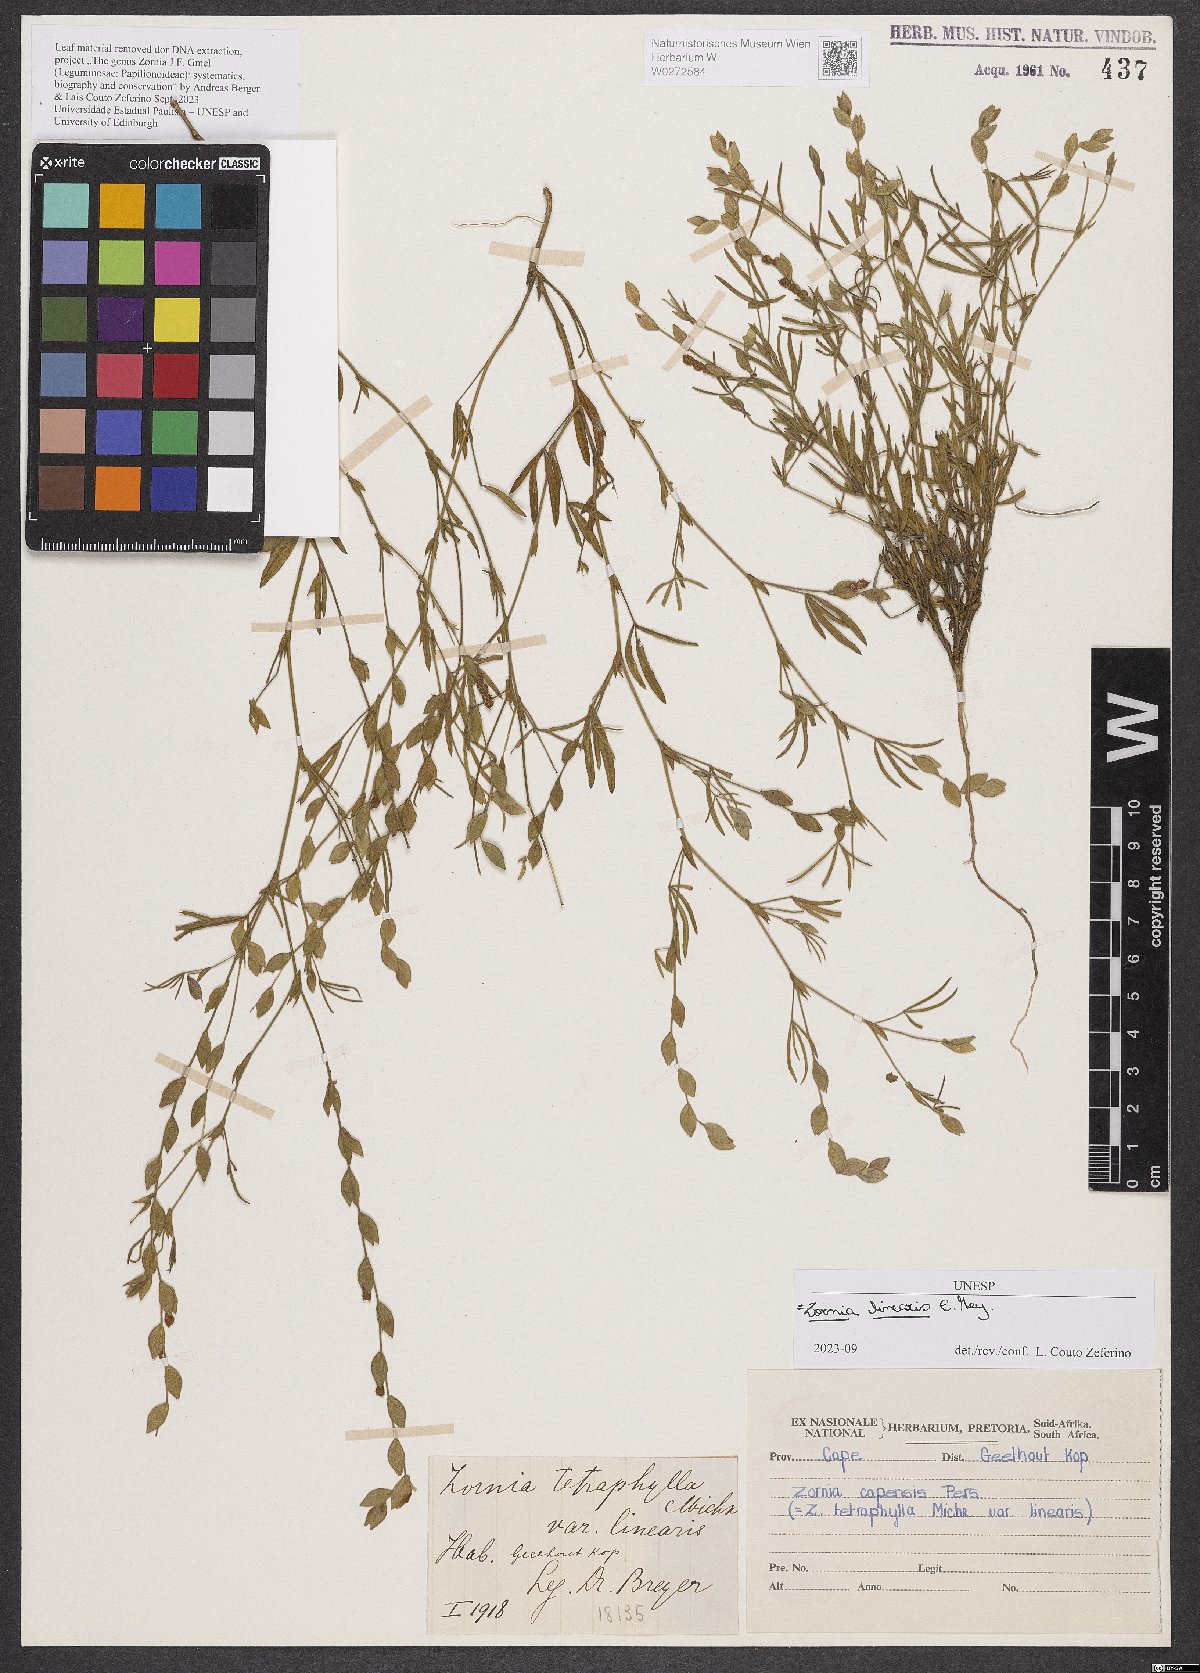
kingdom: Plantae
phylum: Tracheophyta
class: Magnoliopsida
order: Fabales
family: Fabaceae
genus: Zornia
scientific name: Zornia linearis
